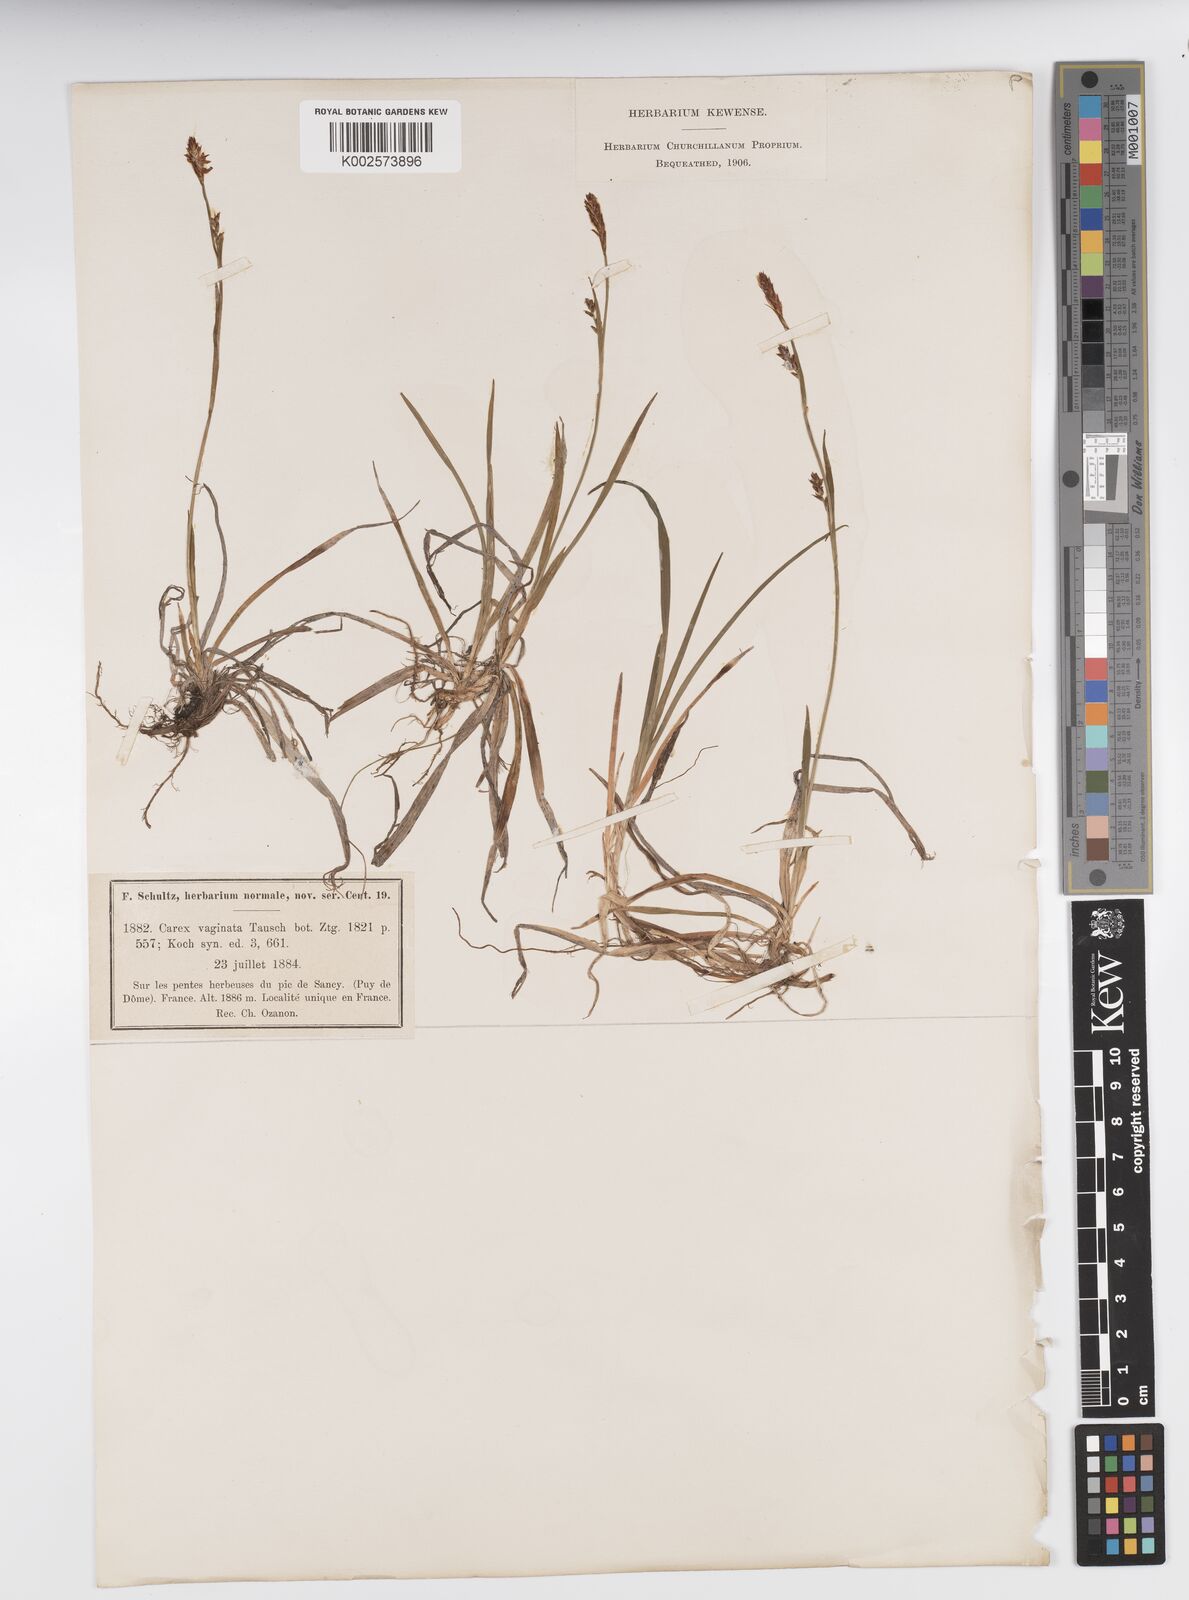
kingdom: Plantae
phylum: Tracheophyta
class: Liliopsida
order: Poales
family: Cyperaceae
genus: Carex
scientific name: Carex vaginata
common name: Sheathed sedge
